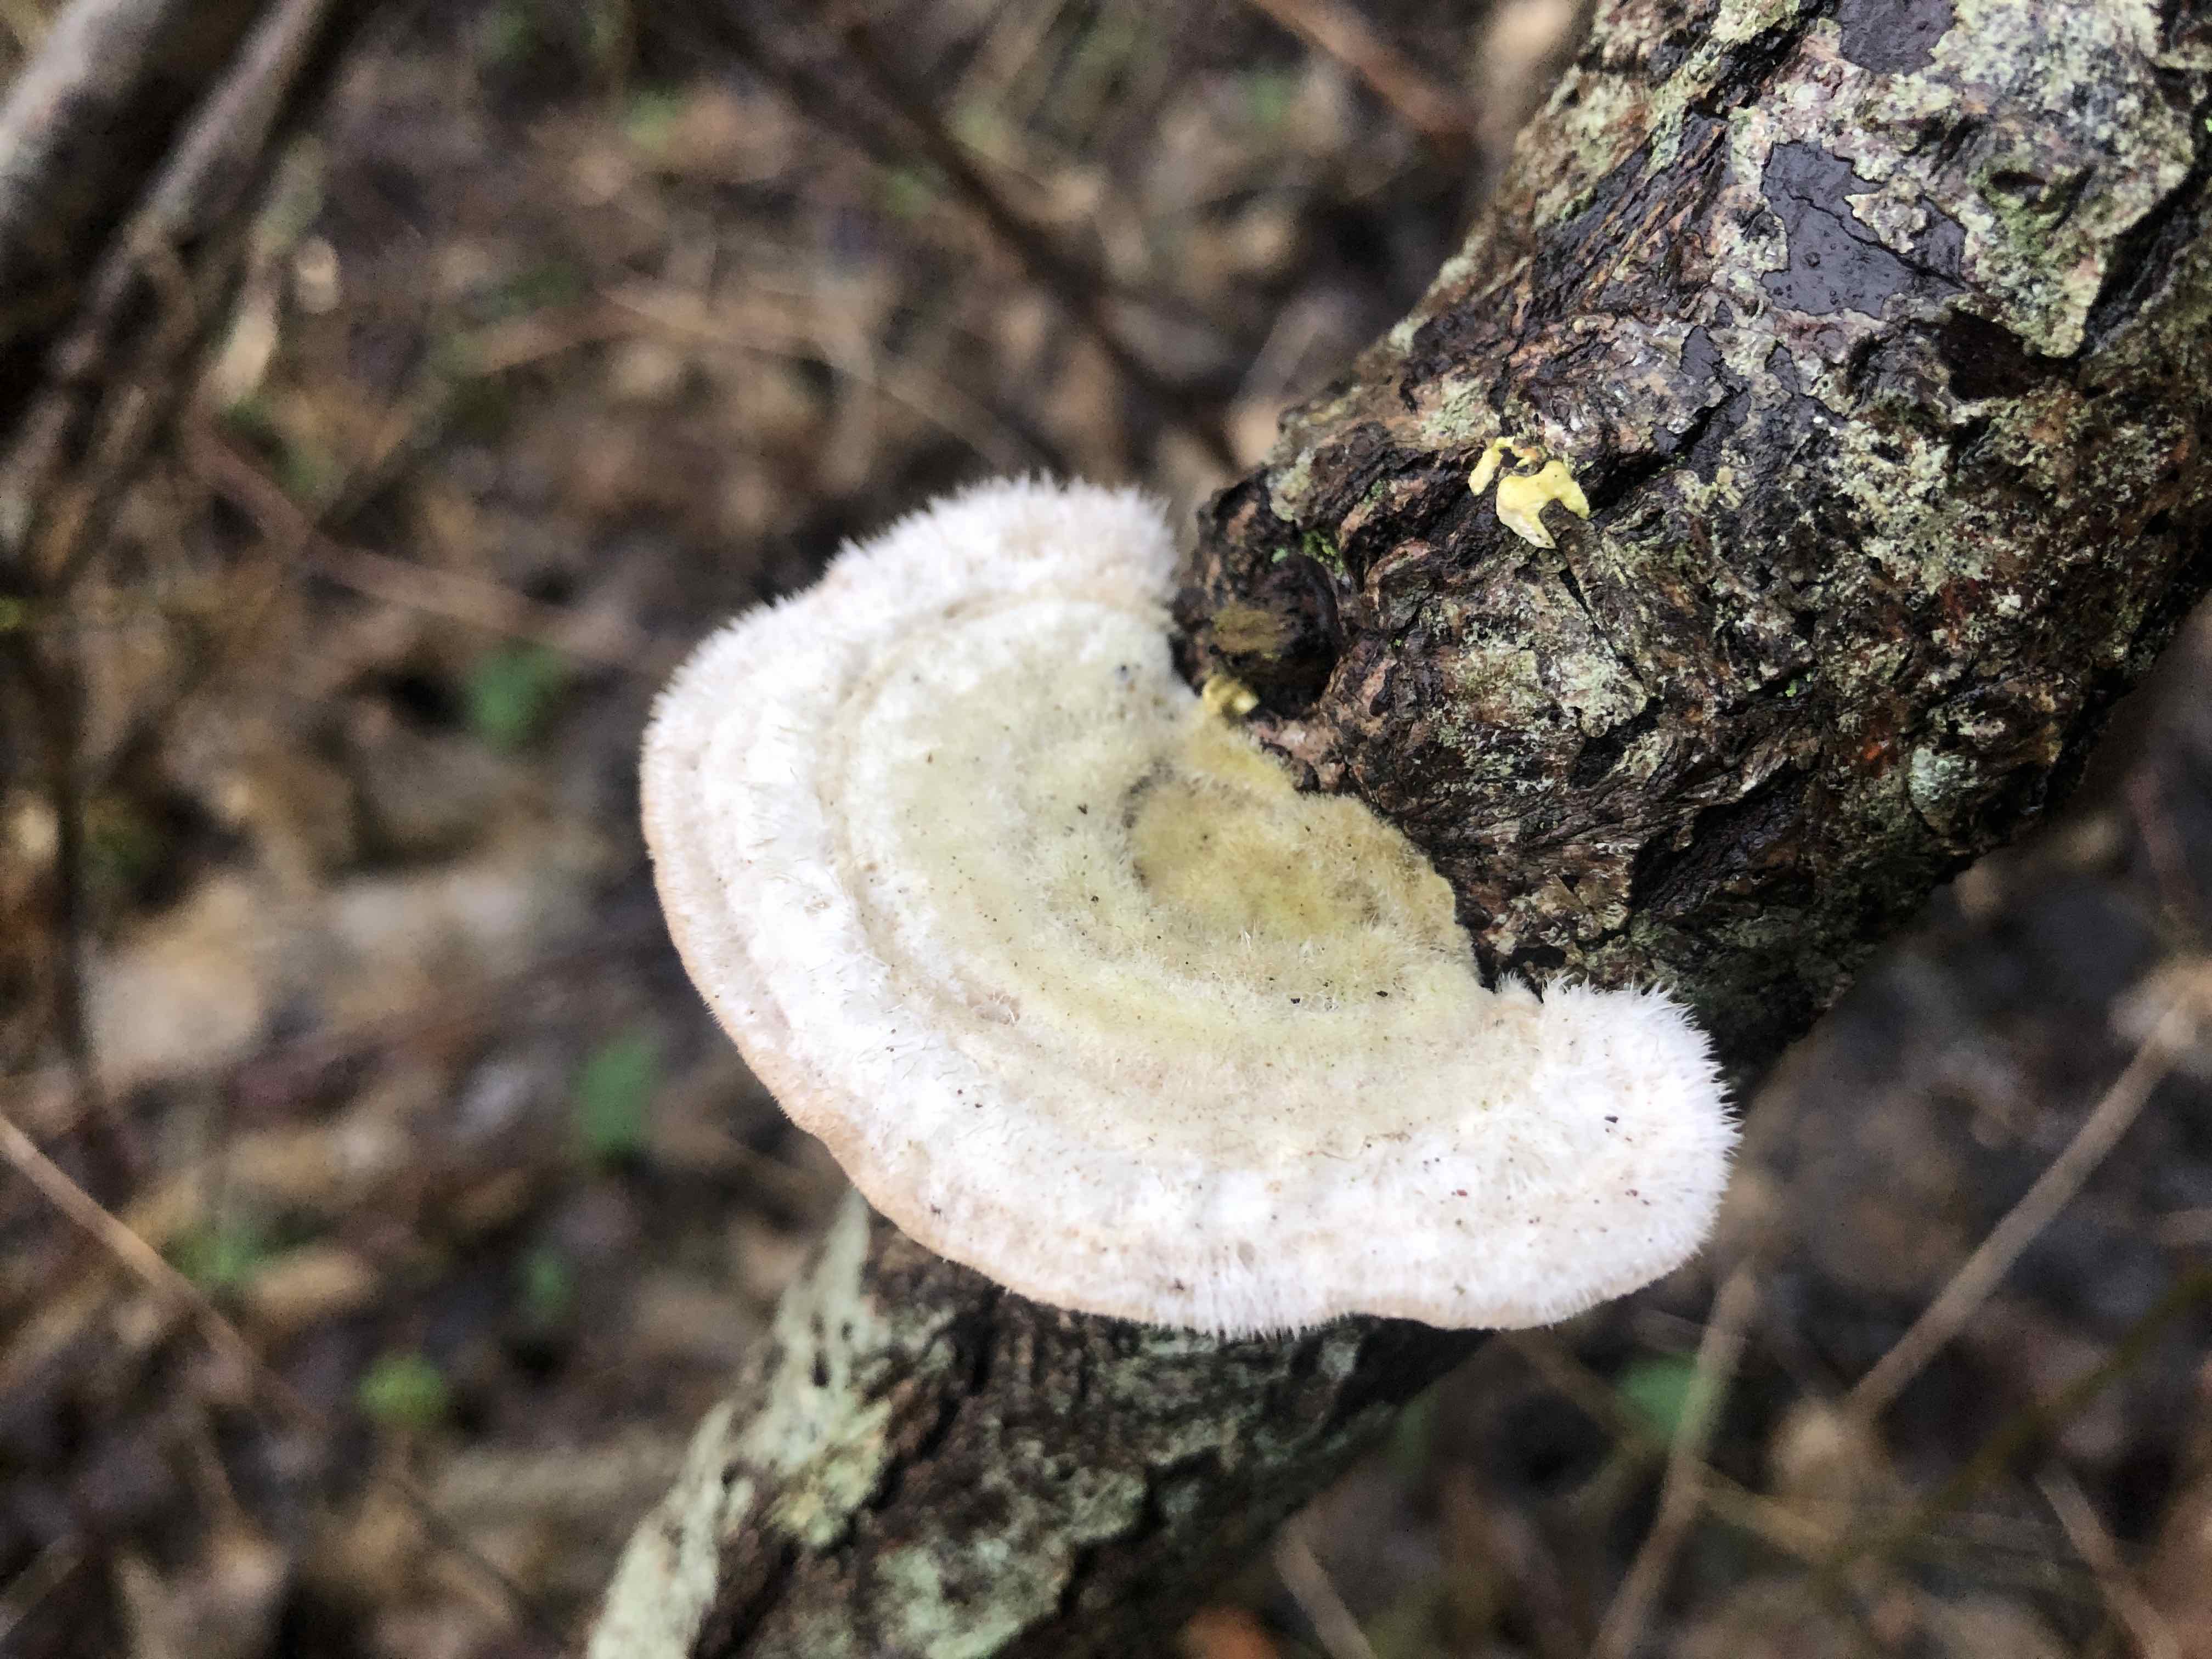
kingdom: Fungi
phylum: Basidiomycota
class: Agaricomycetes
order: Polyporales
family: Polyporaceae
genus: Trametes
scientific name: Trametes hirsuta
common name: håret læderporesvamp
